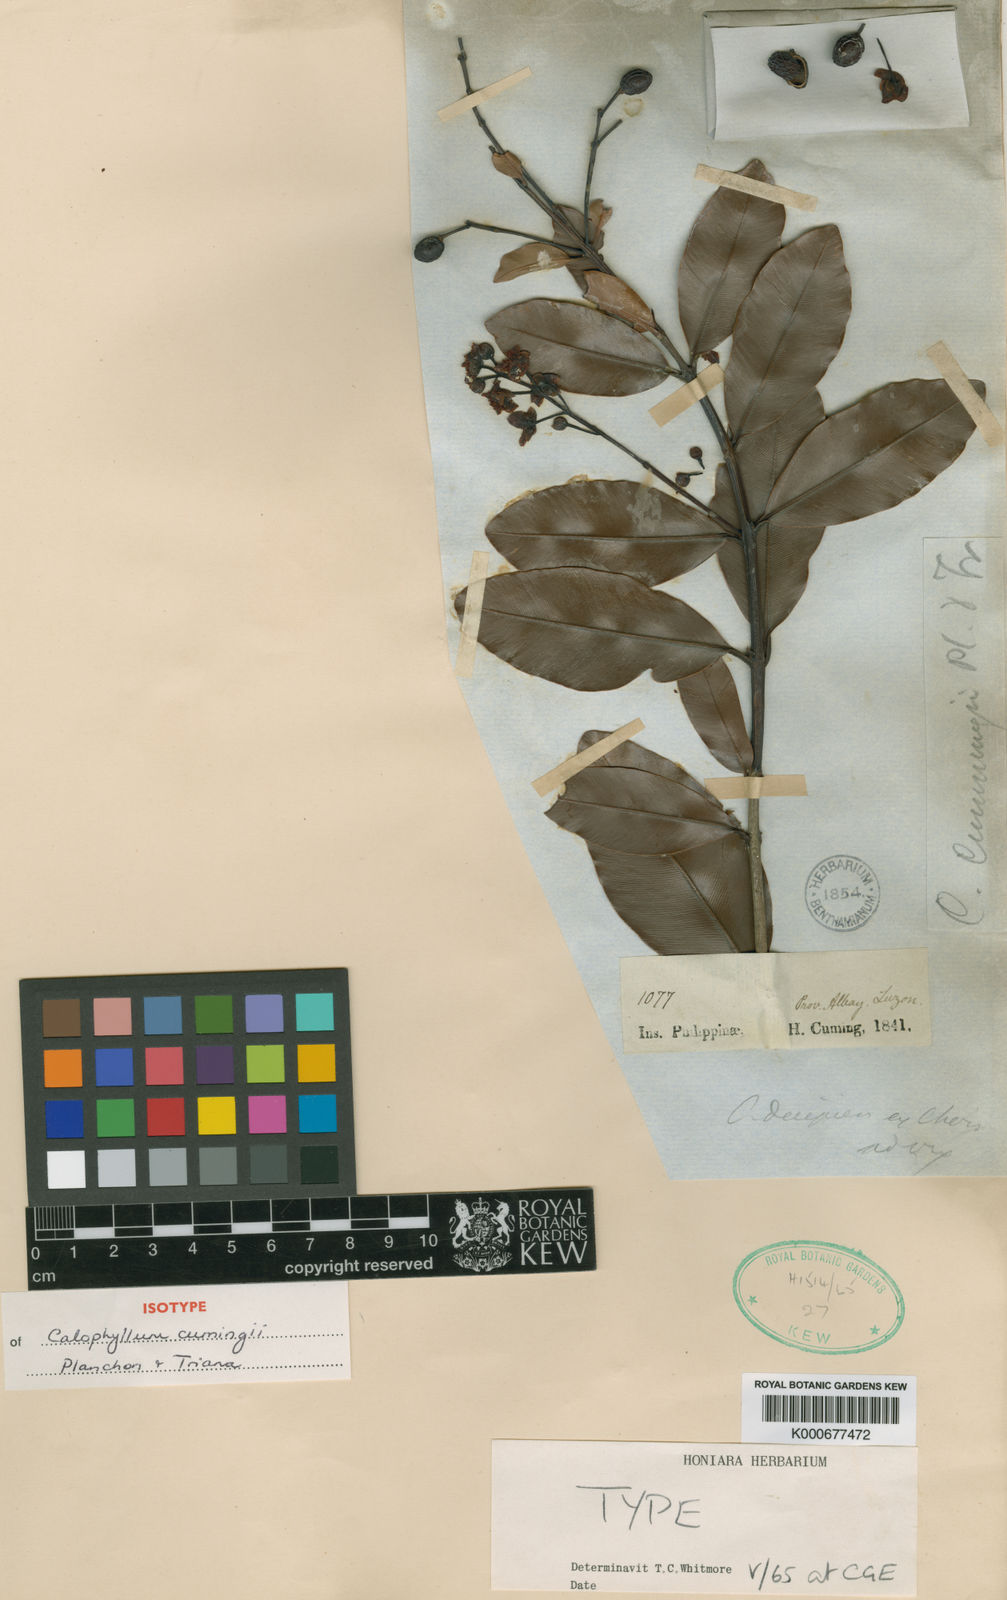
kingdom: Plantae
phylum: Tracheophyta
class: Magnoliopsida
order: Malpighiales
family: Calophyllaceae
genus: Calophyllum
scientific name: Calophyllum pentapetalum
